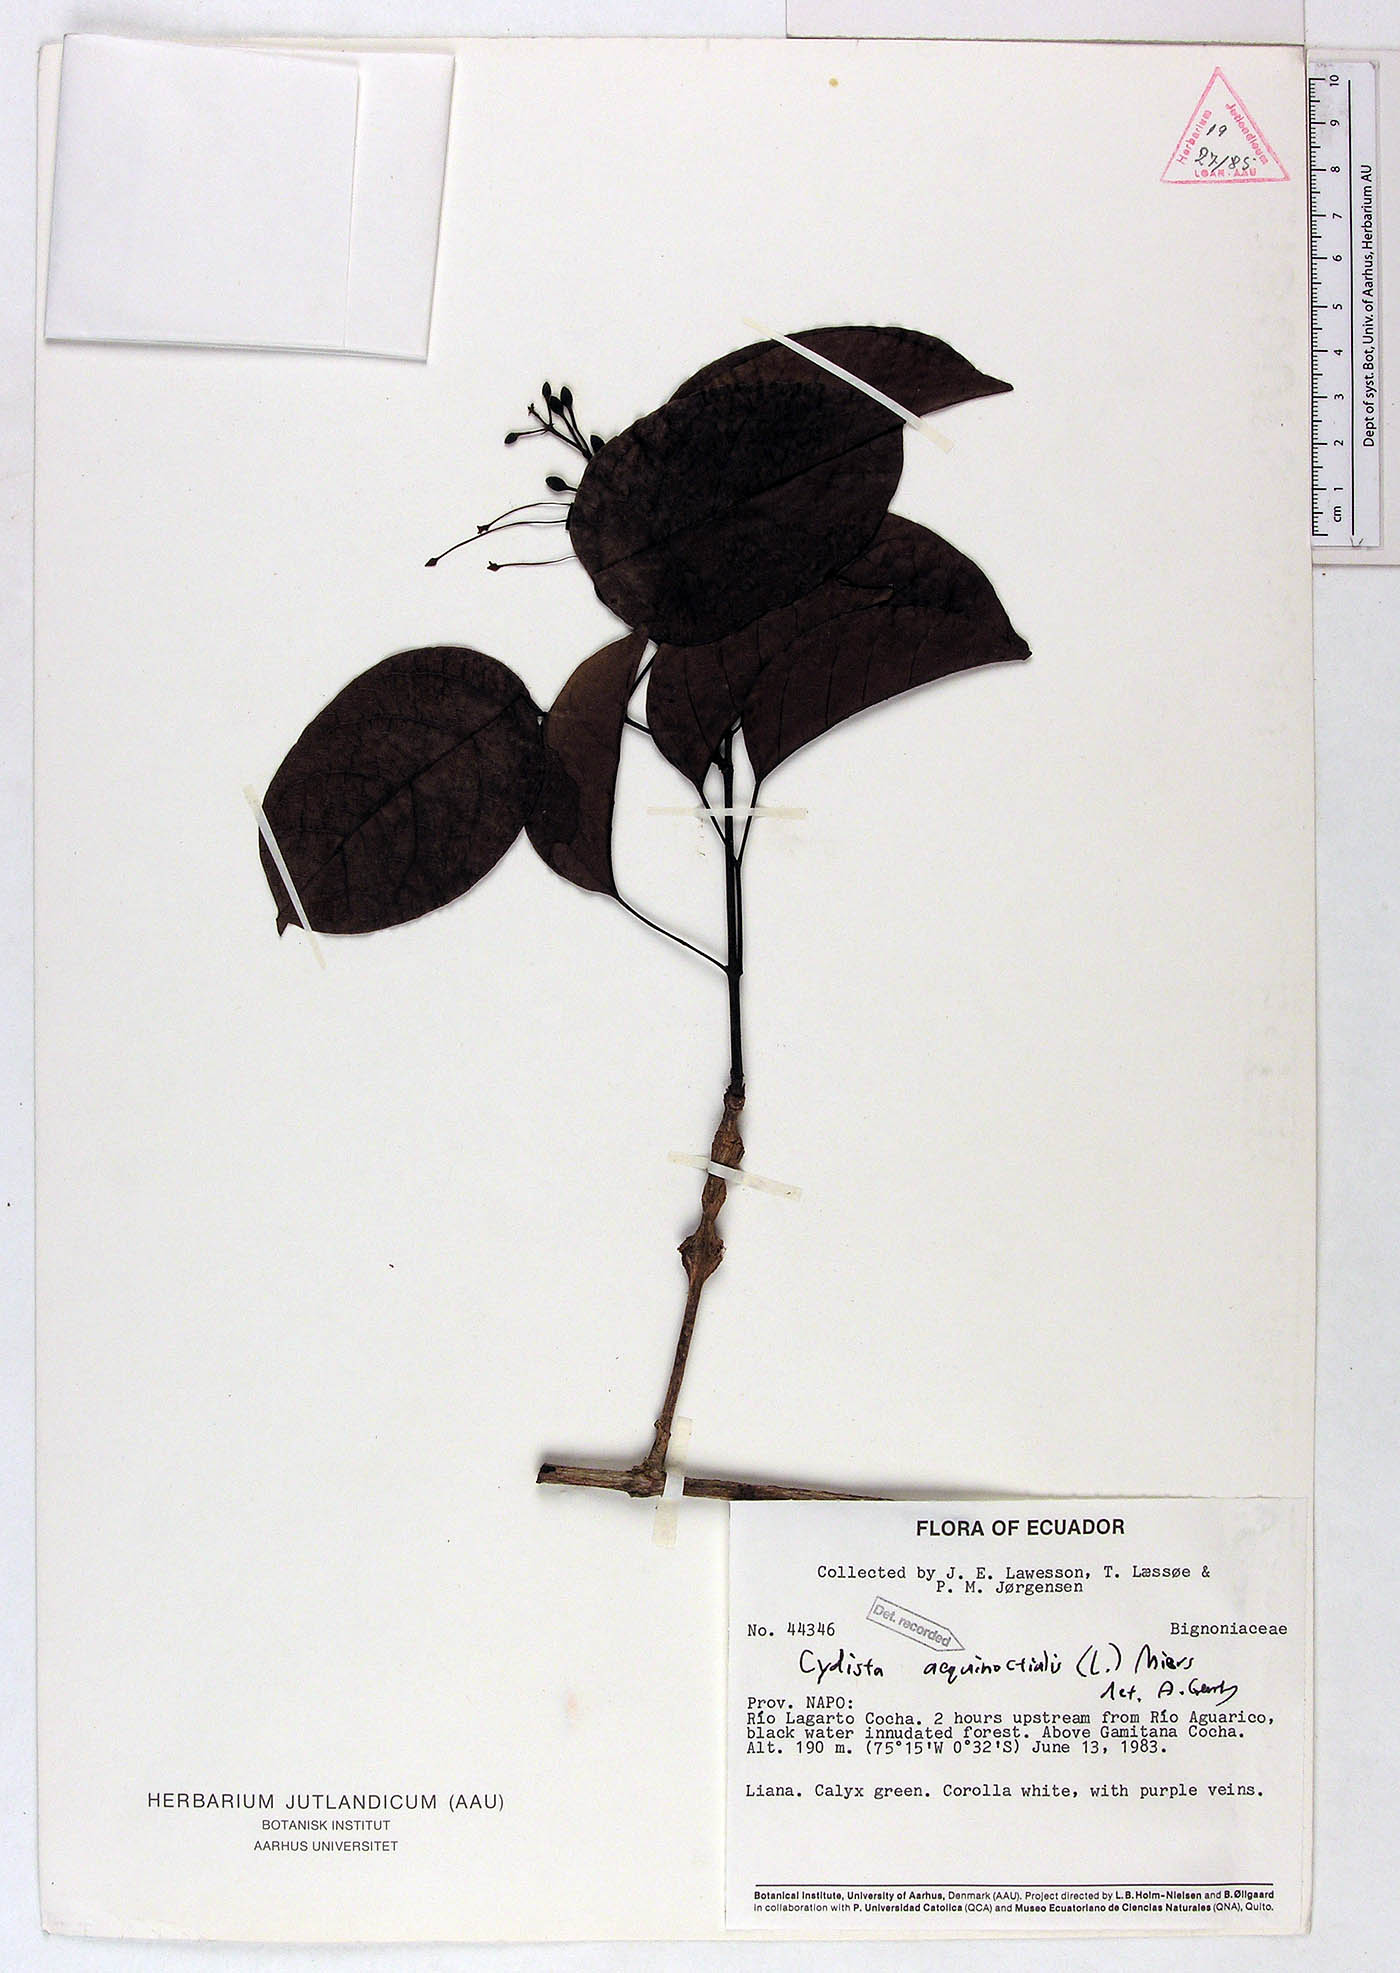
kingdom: Plantae
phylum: Tracheophyta
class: Magnoliopsida
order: Lamiales
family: Bignoniaceae
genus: Bignonia
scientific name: Bignonia aequinoctialis
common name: Garlicvine
